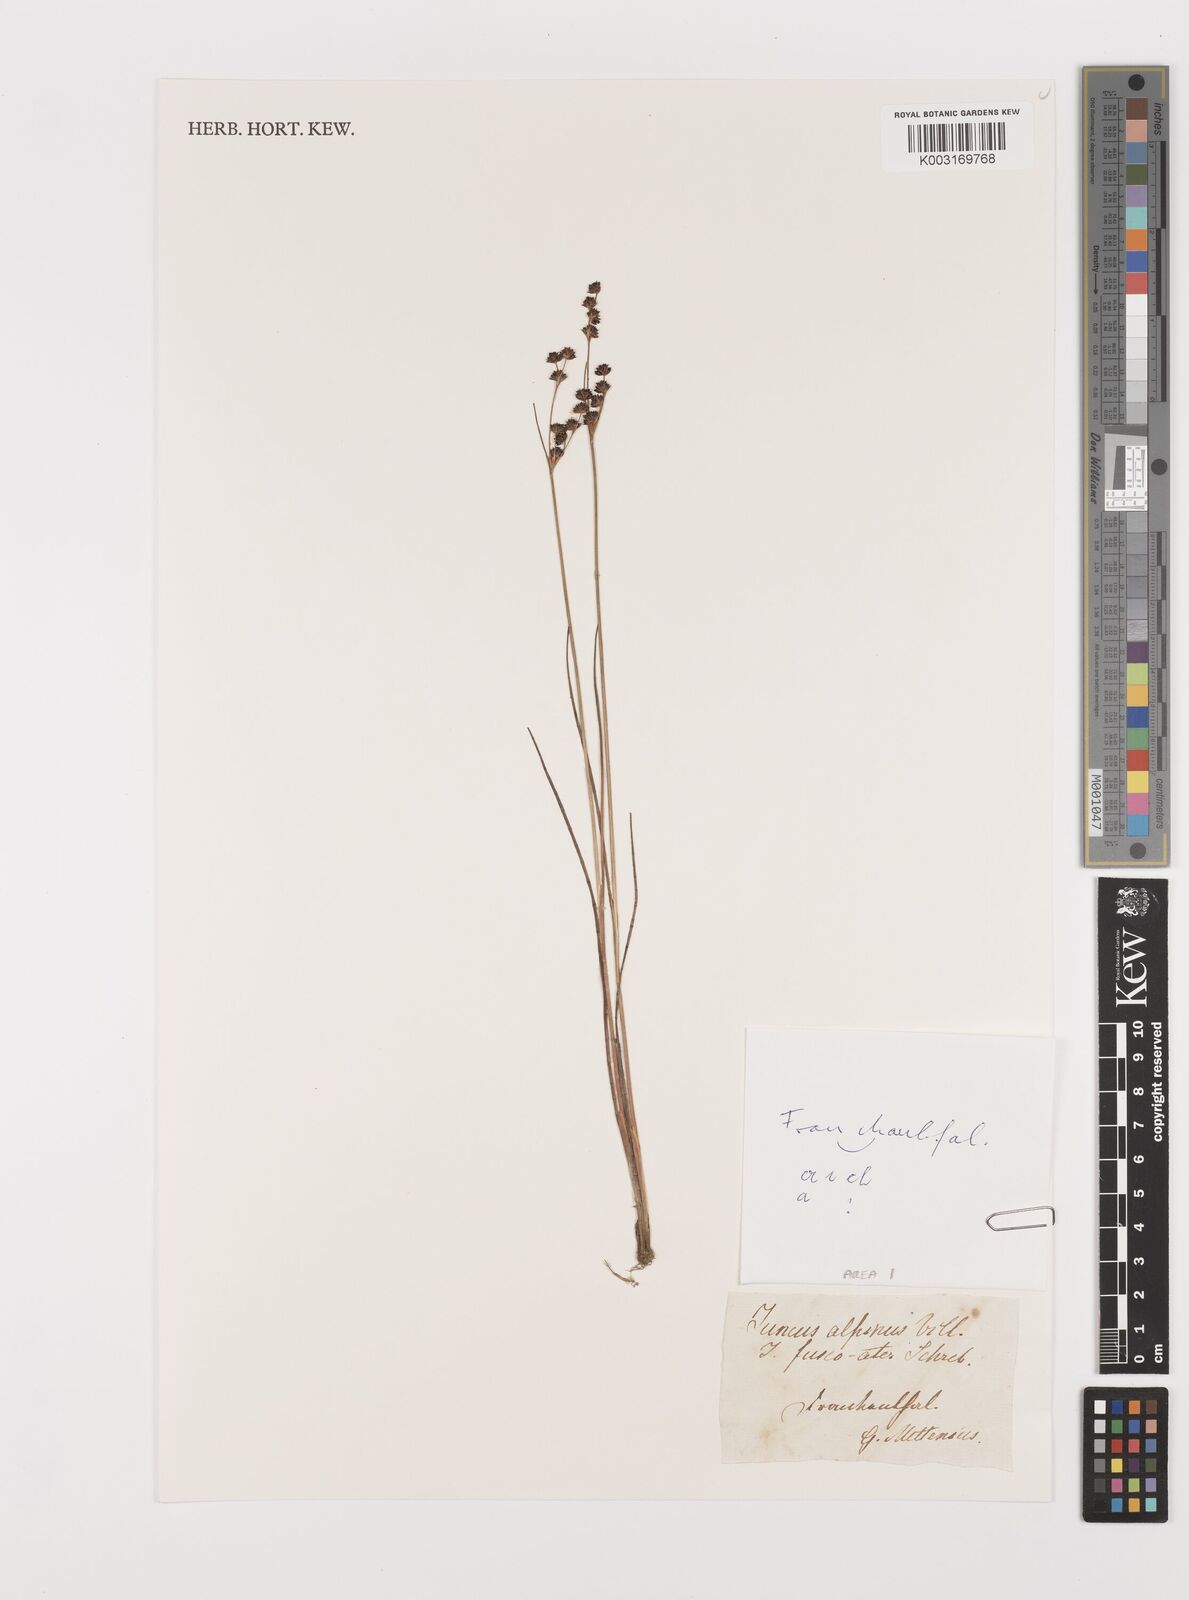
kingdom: Plantae
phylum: Tracheophyta
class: Liliopsida
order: Poales
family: Juncaceae
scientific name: Juncaceae
